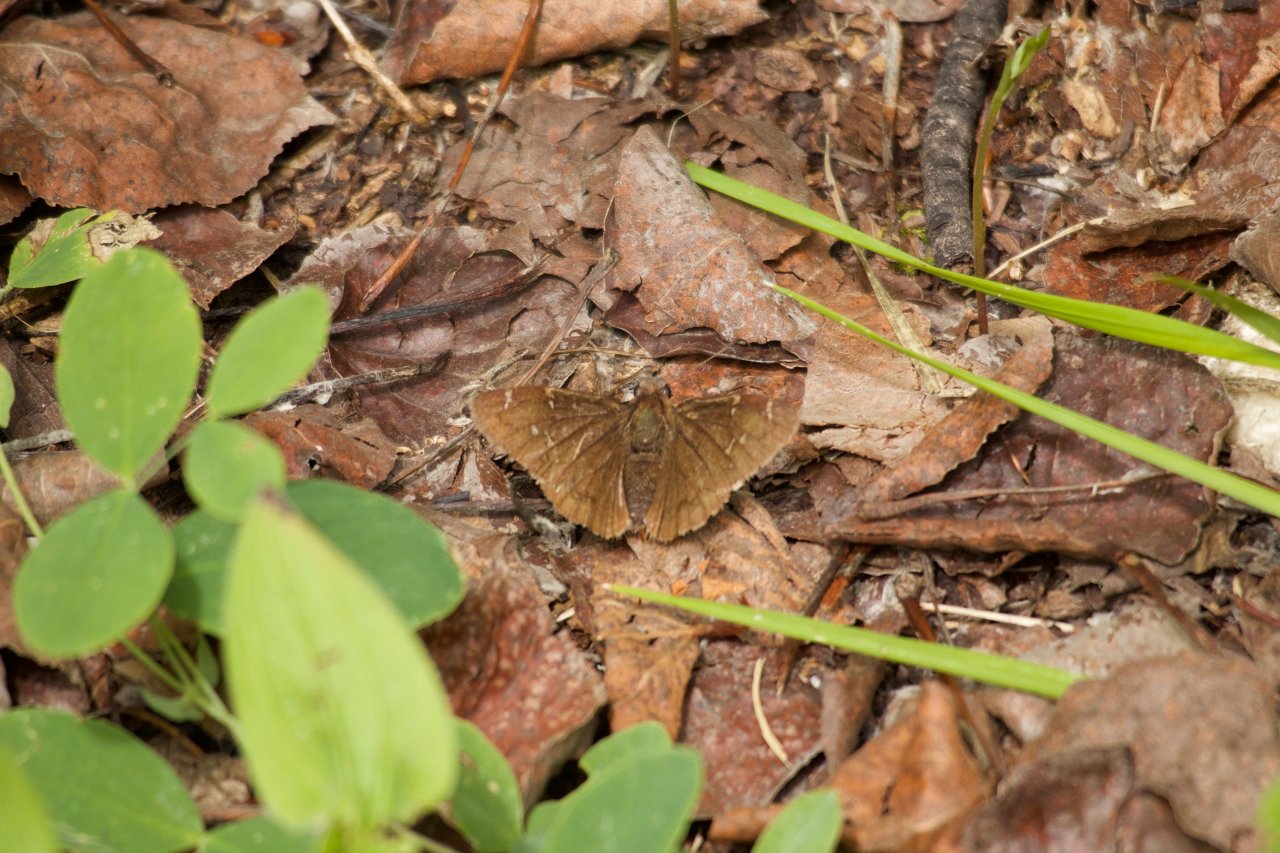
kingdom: Animalia
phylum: Arthropoda
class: Insecta
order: Lepidoptera
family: Hesperiidae
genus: Autochton
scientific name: Autochton
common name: Northern Cloudywing
